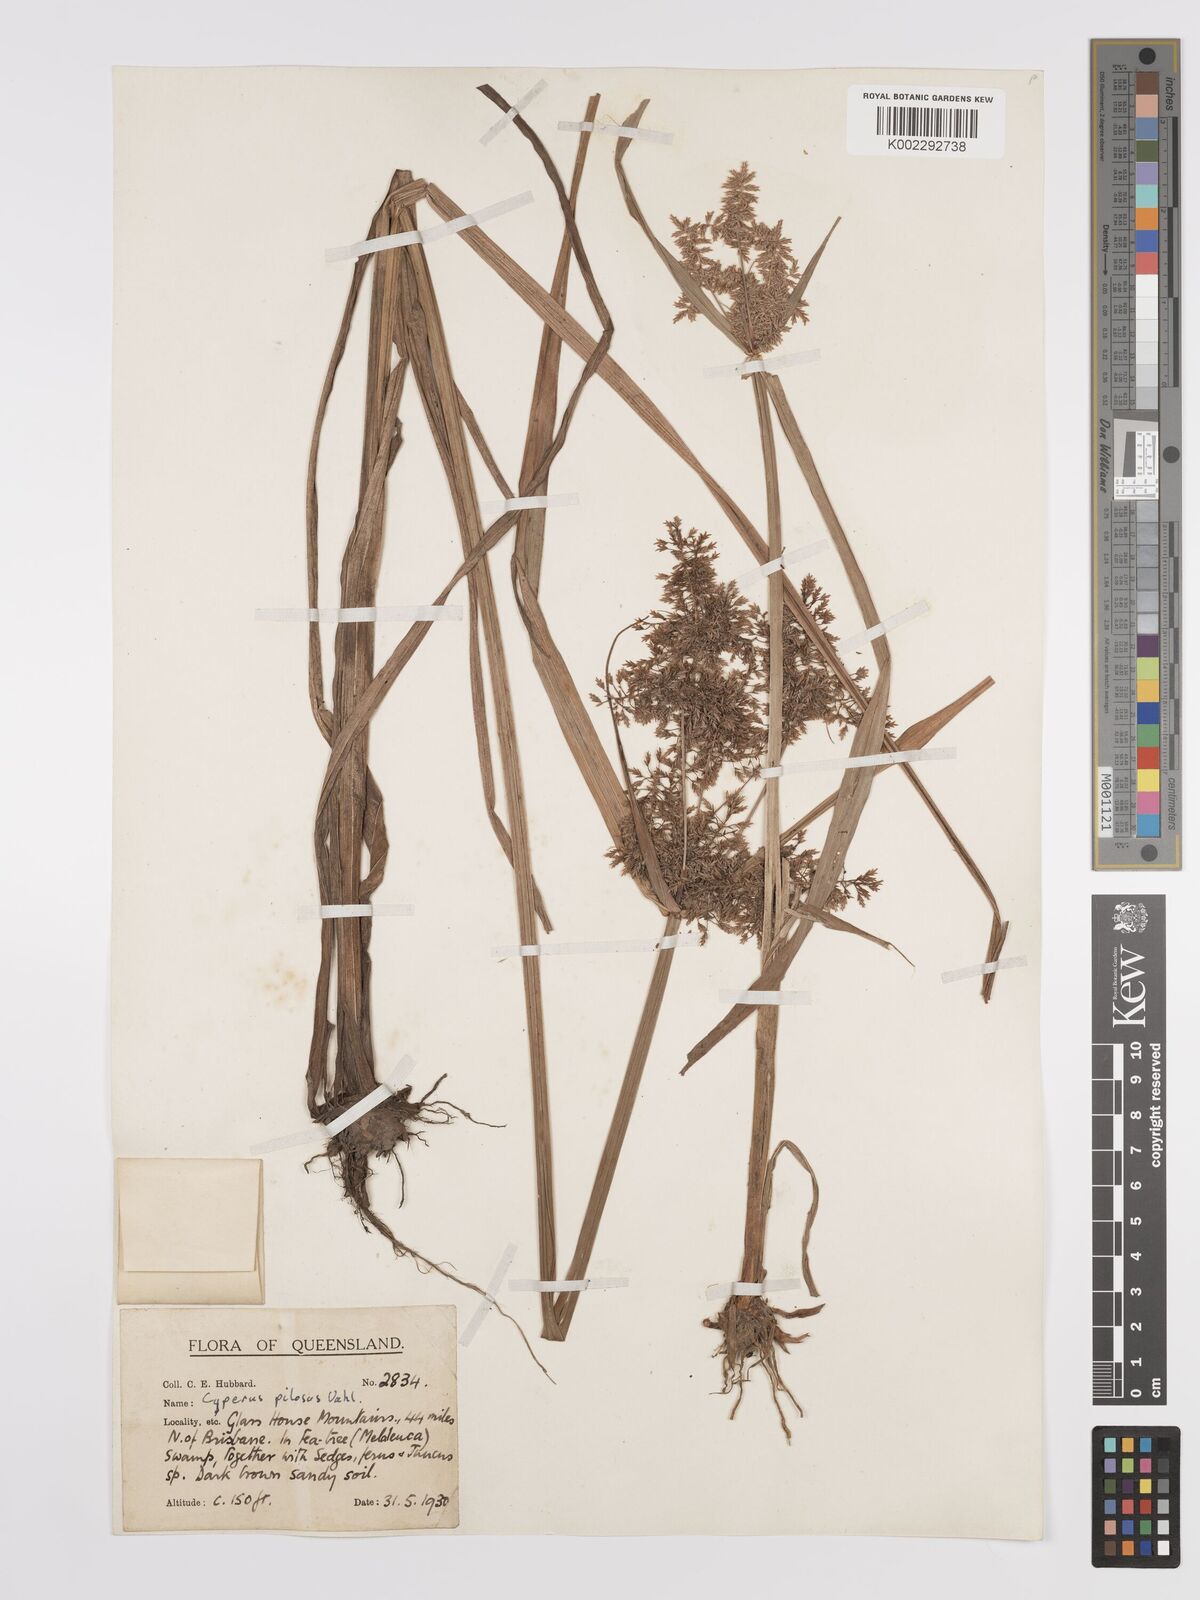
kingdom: Plantae
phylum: Tracheophyta
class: Liliopsida
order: Poales
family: Cyperaceae
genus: Cyperus
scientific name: Cyperus pilosus
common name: Fuzzy flatsedge
